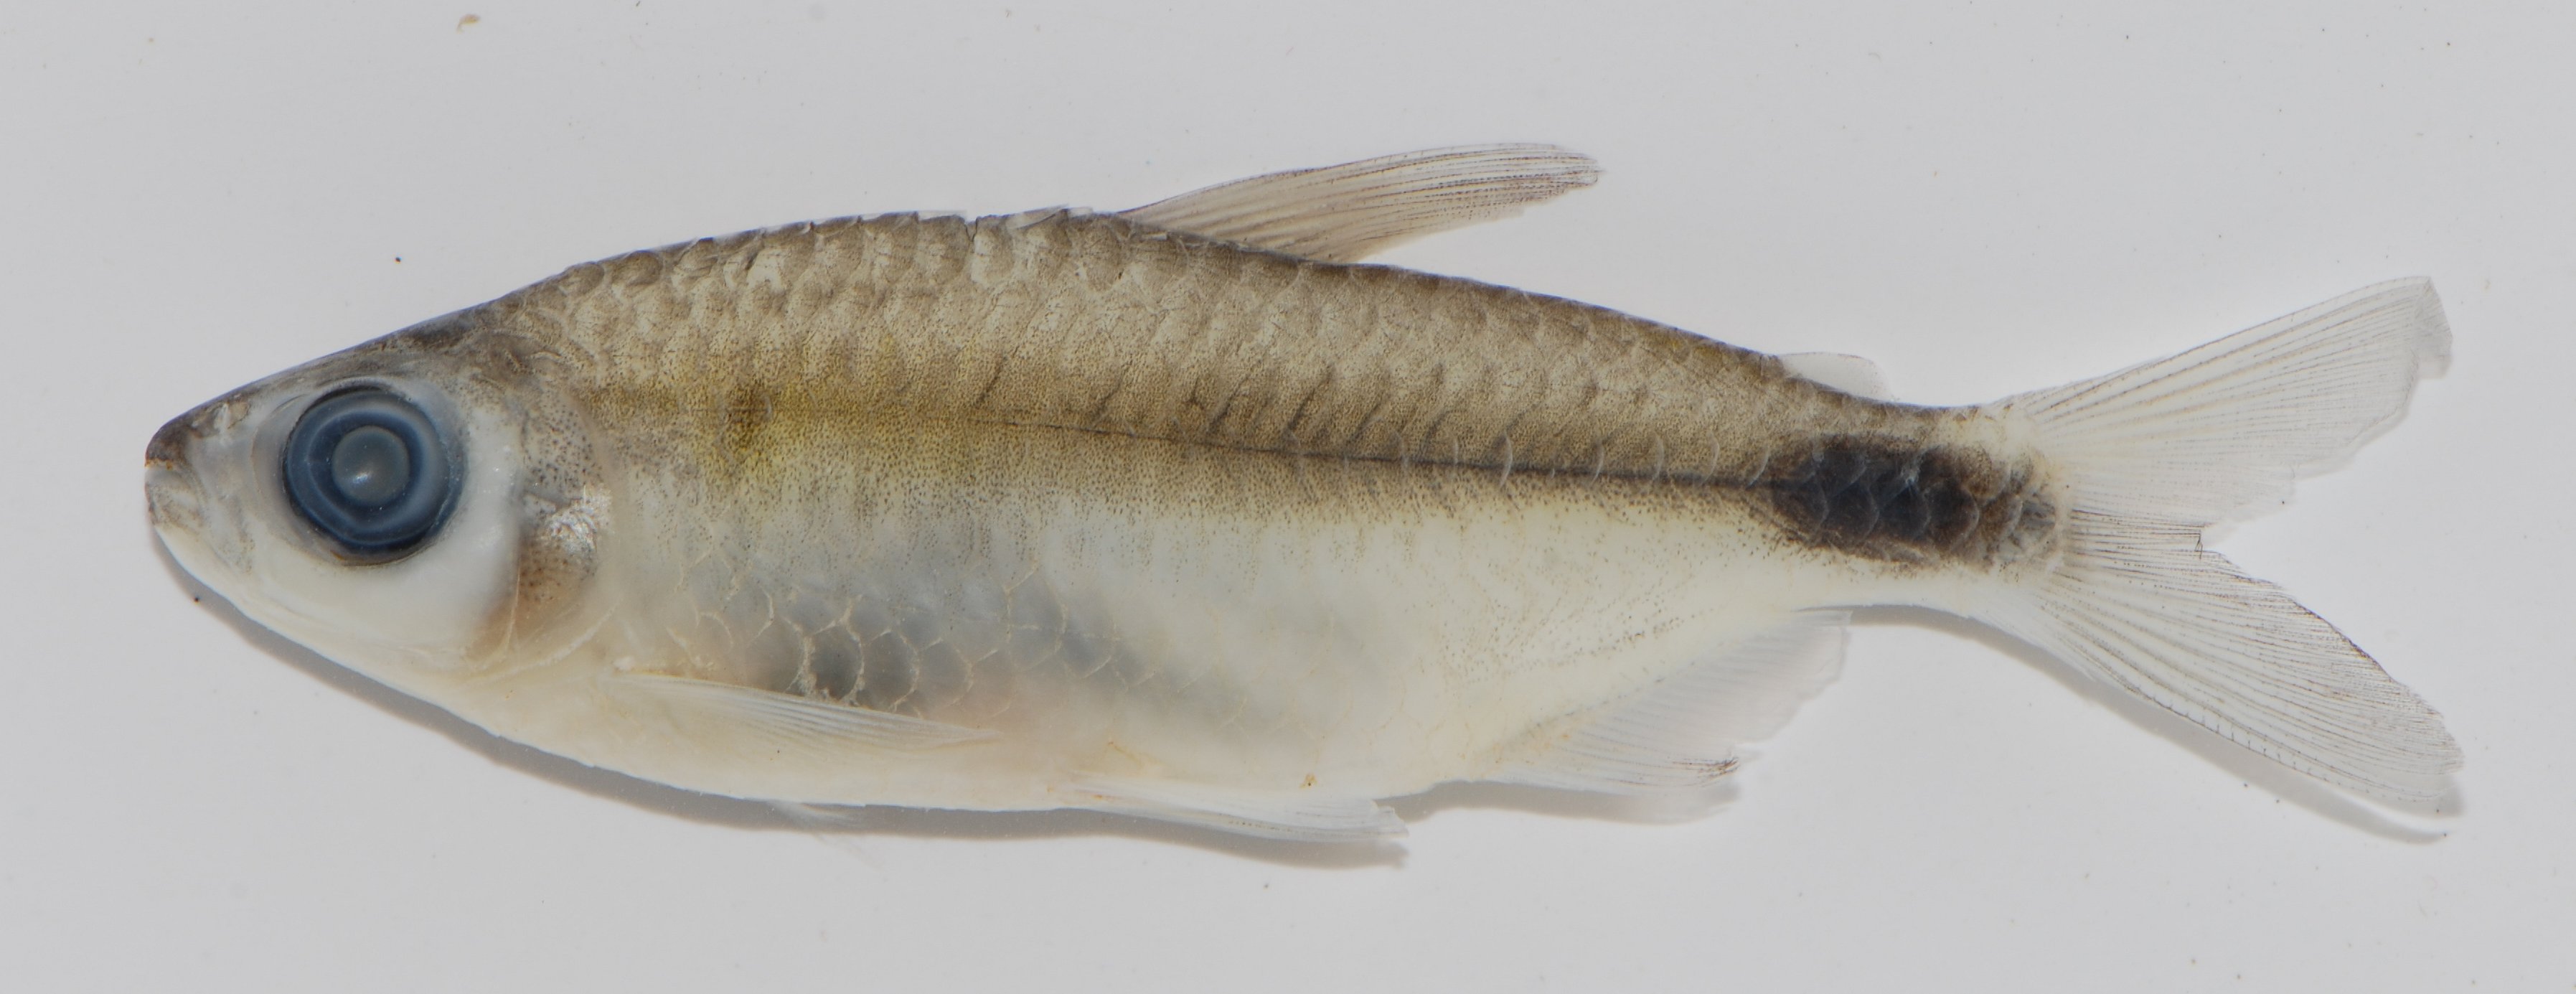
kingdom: Animalia
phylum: Chordata
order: Characiformes
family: Alestidae
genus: Brycinus
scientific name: Brycinus
